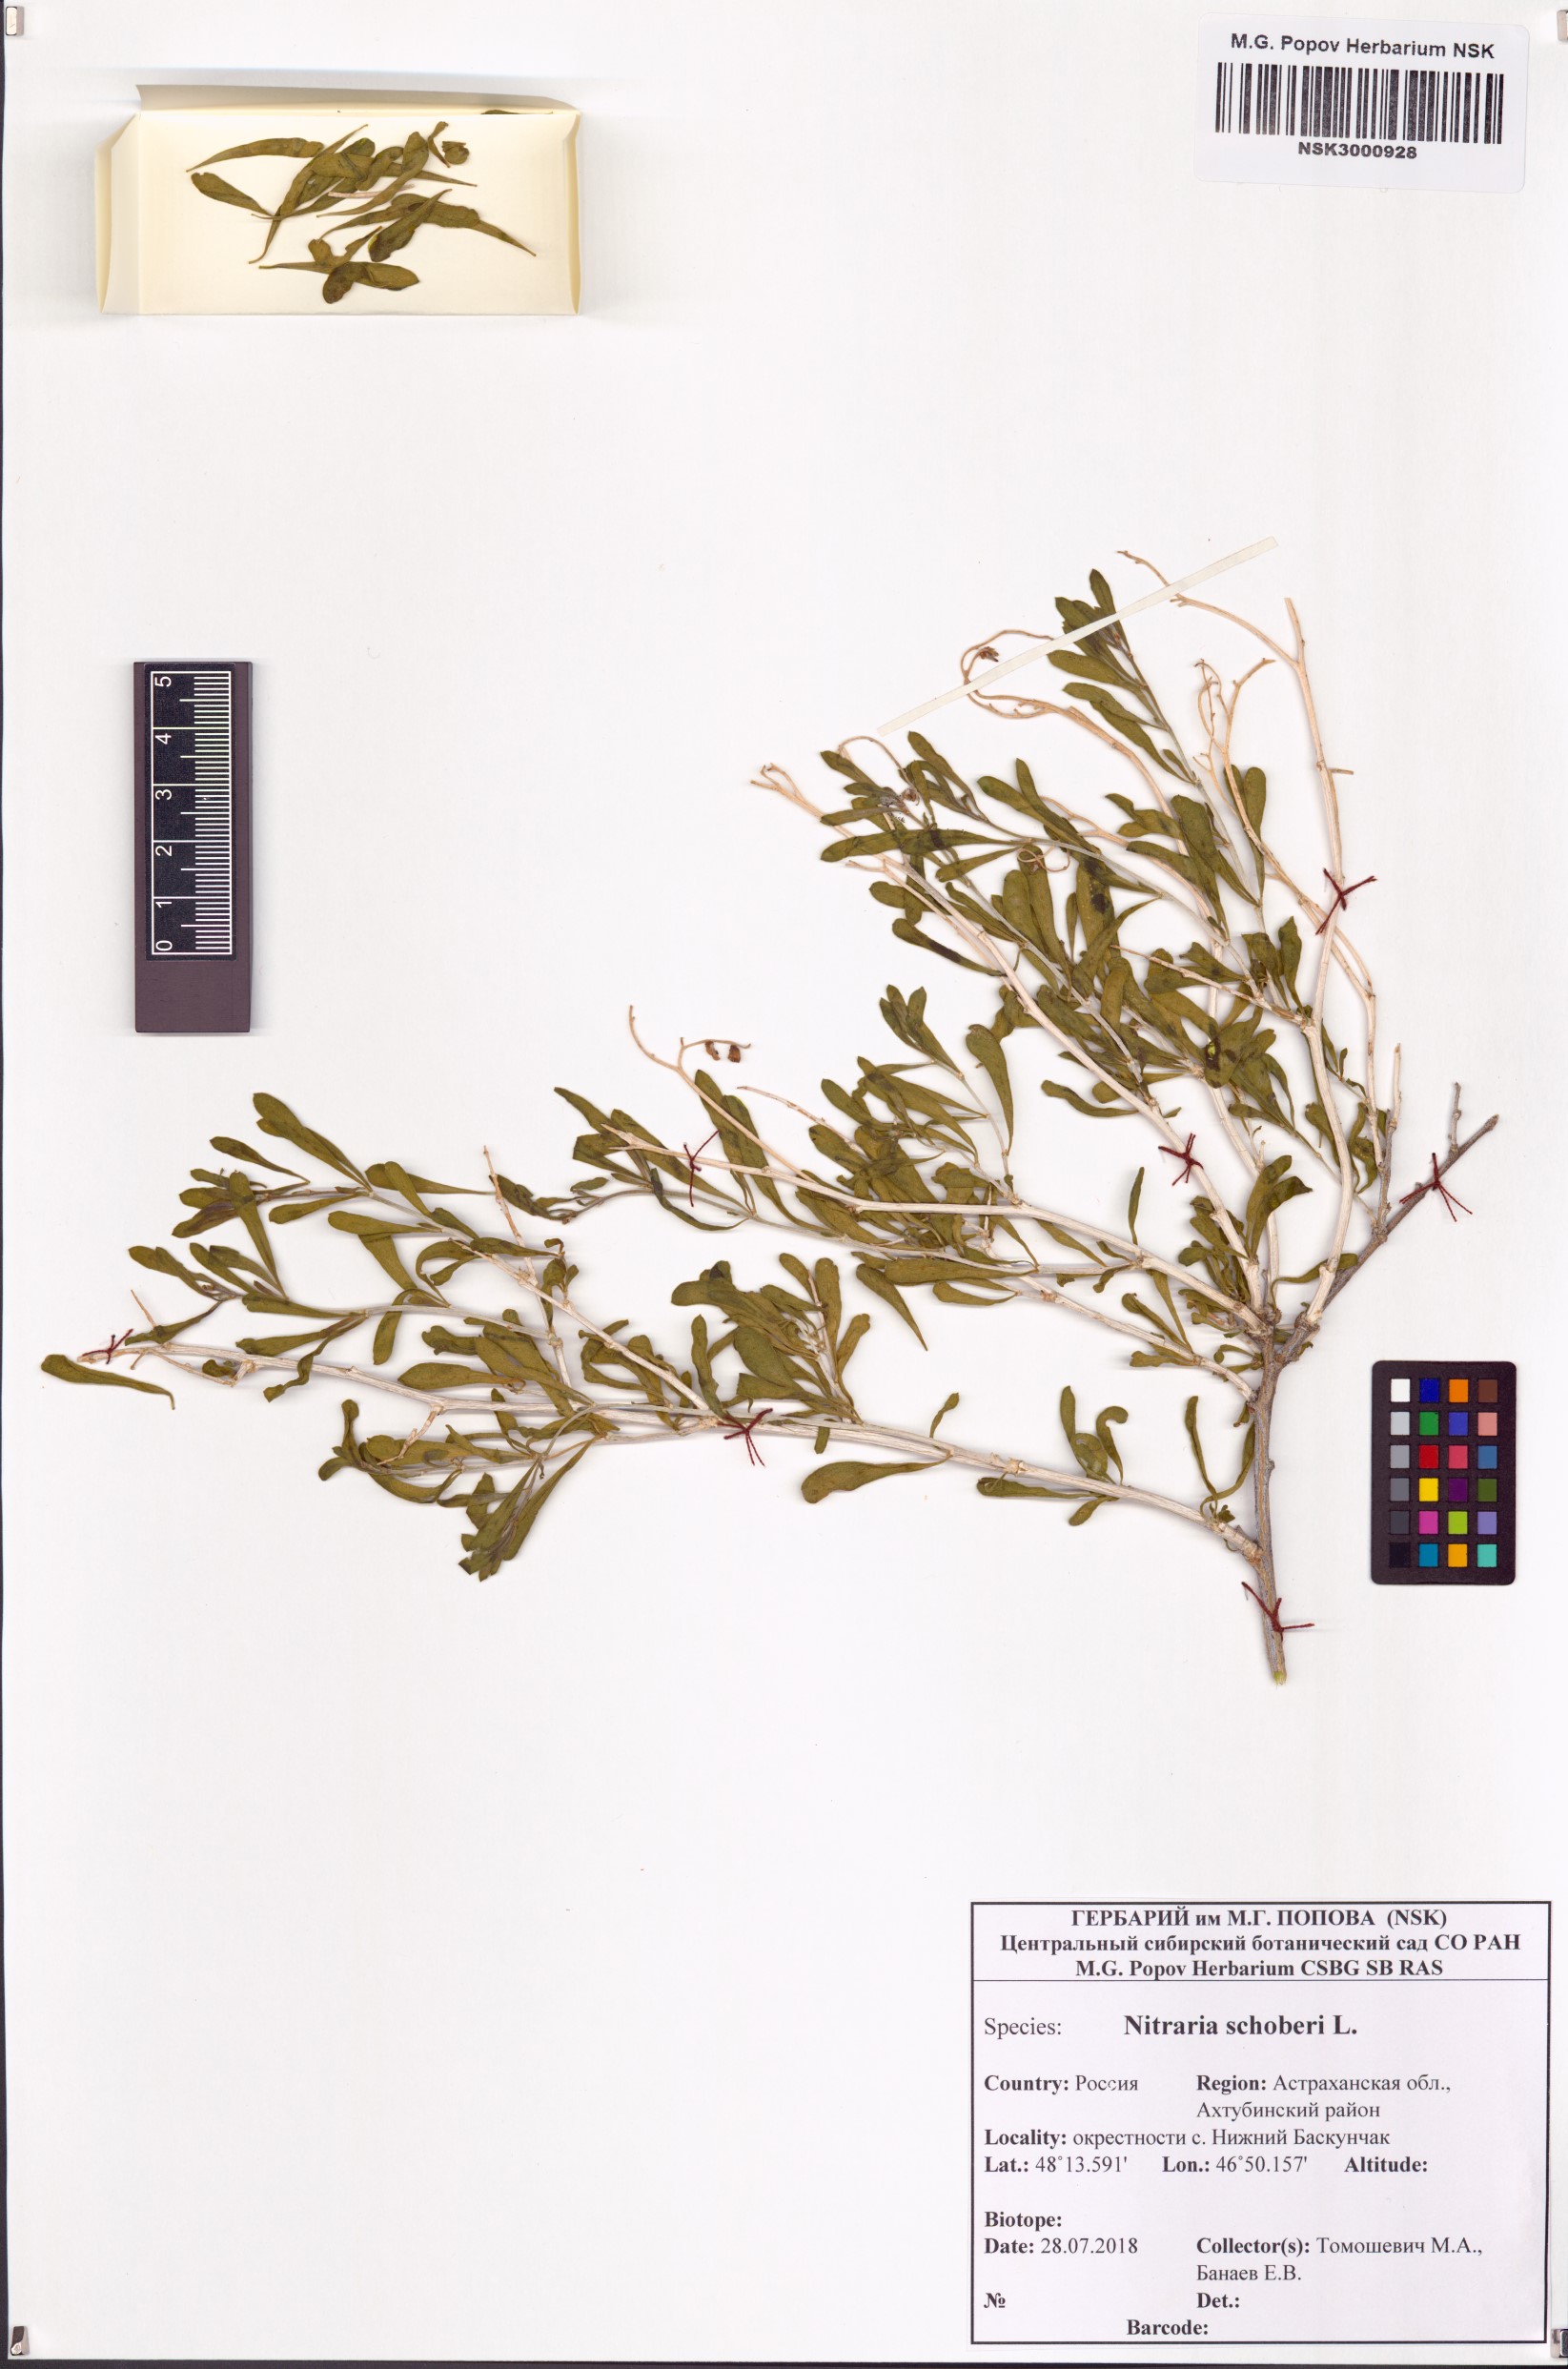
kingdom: Plantae
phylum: Tracheophyta
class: Magnoliopsida
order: Sapindales
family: Nitrariaceae
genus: Nitraria
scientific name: Nitraria schoberi
